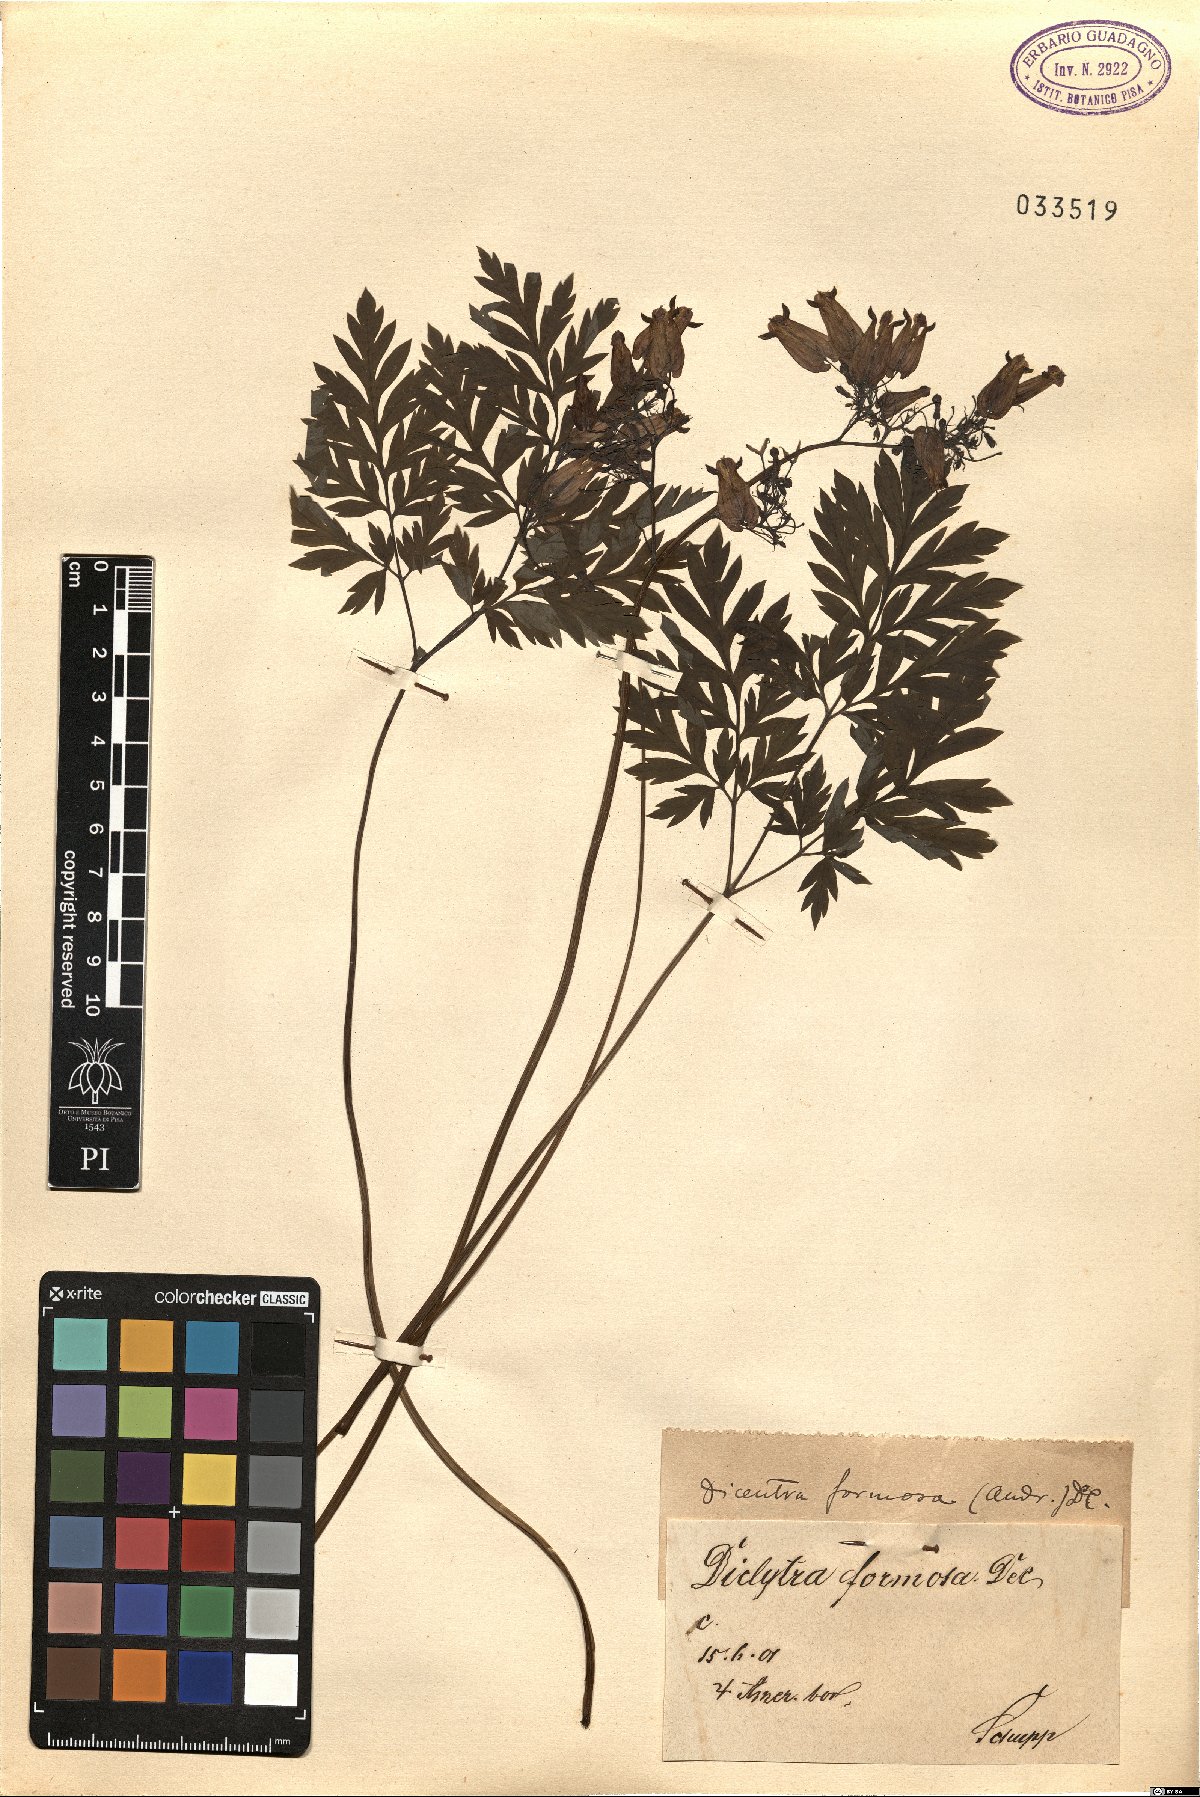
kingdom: Plantae
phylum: Tracheophyta
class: Magnoliopsida
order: Ranunculales
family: Papaveraceae
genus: Dicentra
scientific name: Dicentra formosa
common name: Bleeding-heart
